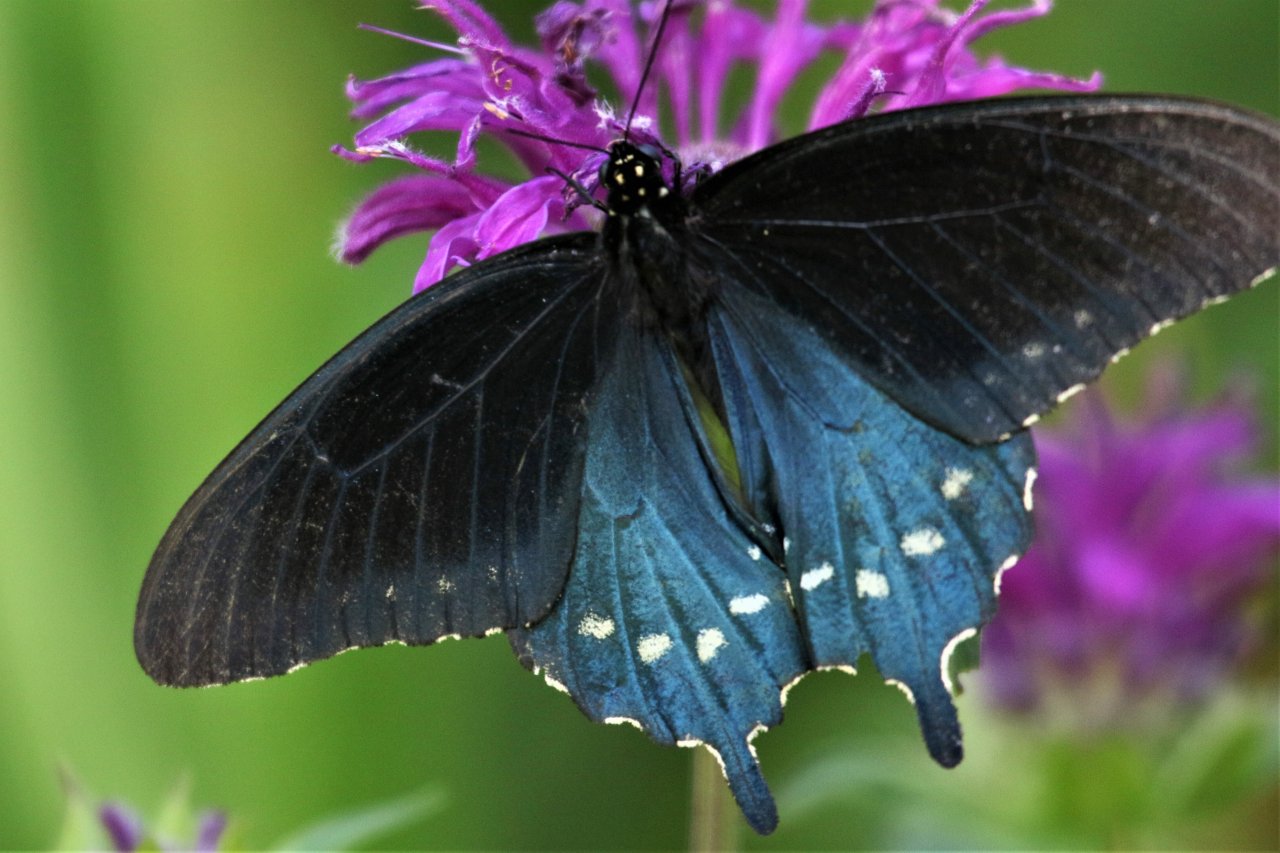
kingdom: Animalia
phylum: Arthropoda
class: Insecta
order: Lepidoptera
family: Papilionidae
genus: Battus
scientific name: Battus philenor
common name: Pipevine Swallowtail
